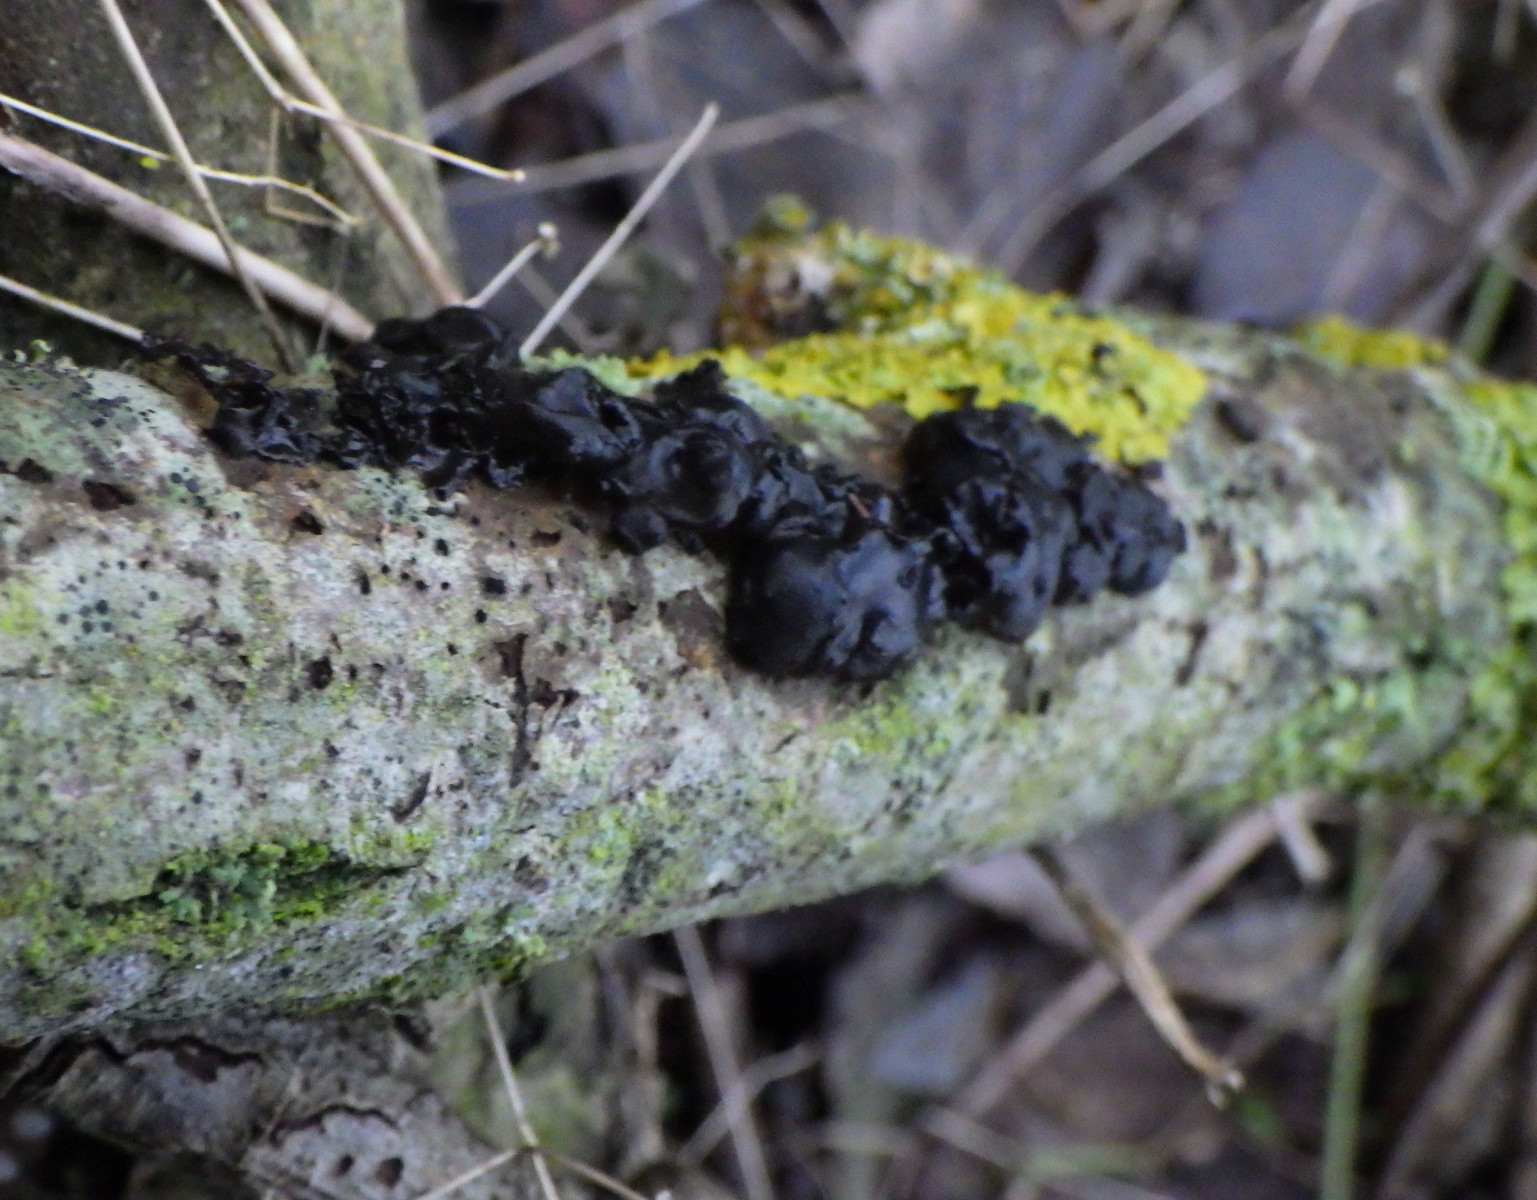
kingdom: Fungi
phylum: Basidiomycota
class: Agaricomycetes
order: Auriculariales
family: Auriculariaceae
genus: Exidia
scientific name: Exidia nigricans
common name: almindelig bævretop
